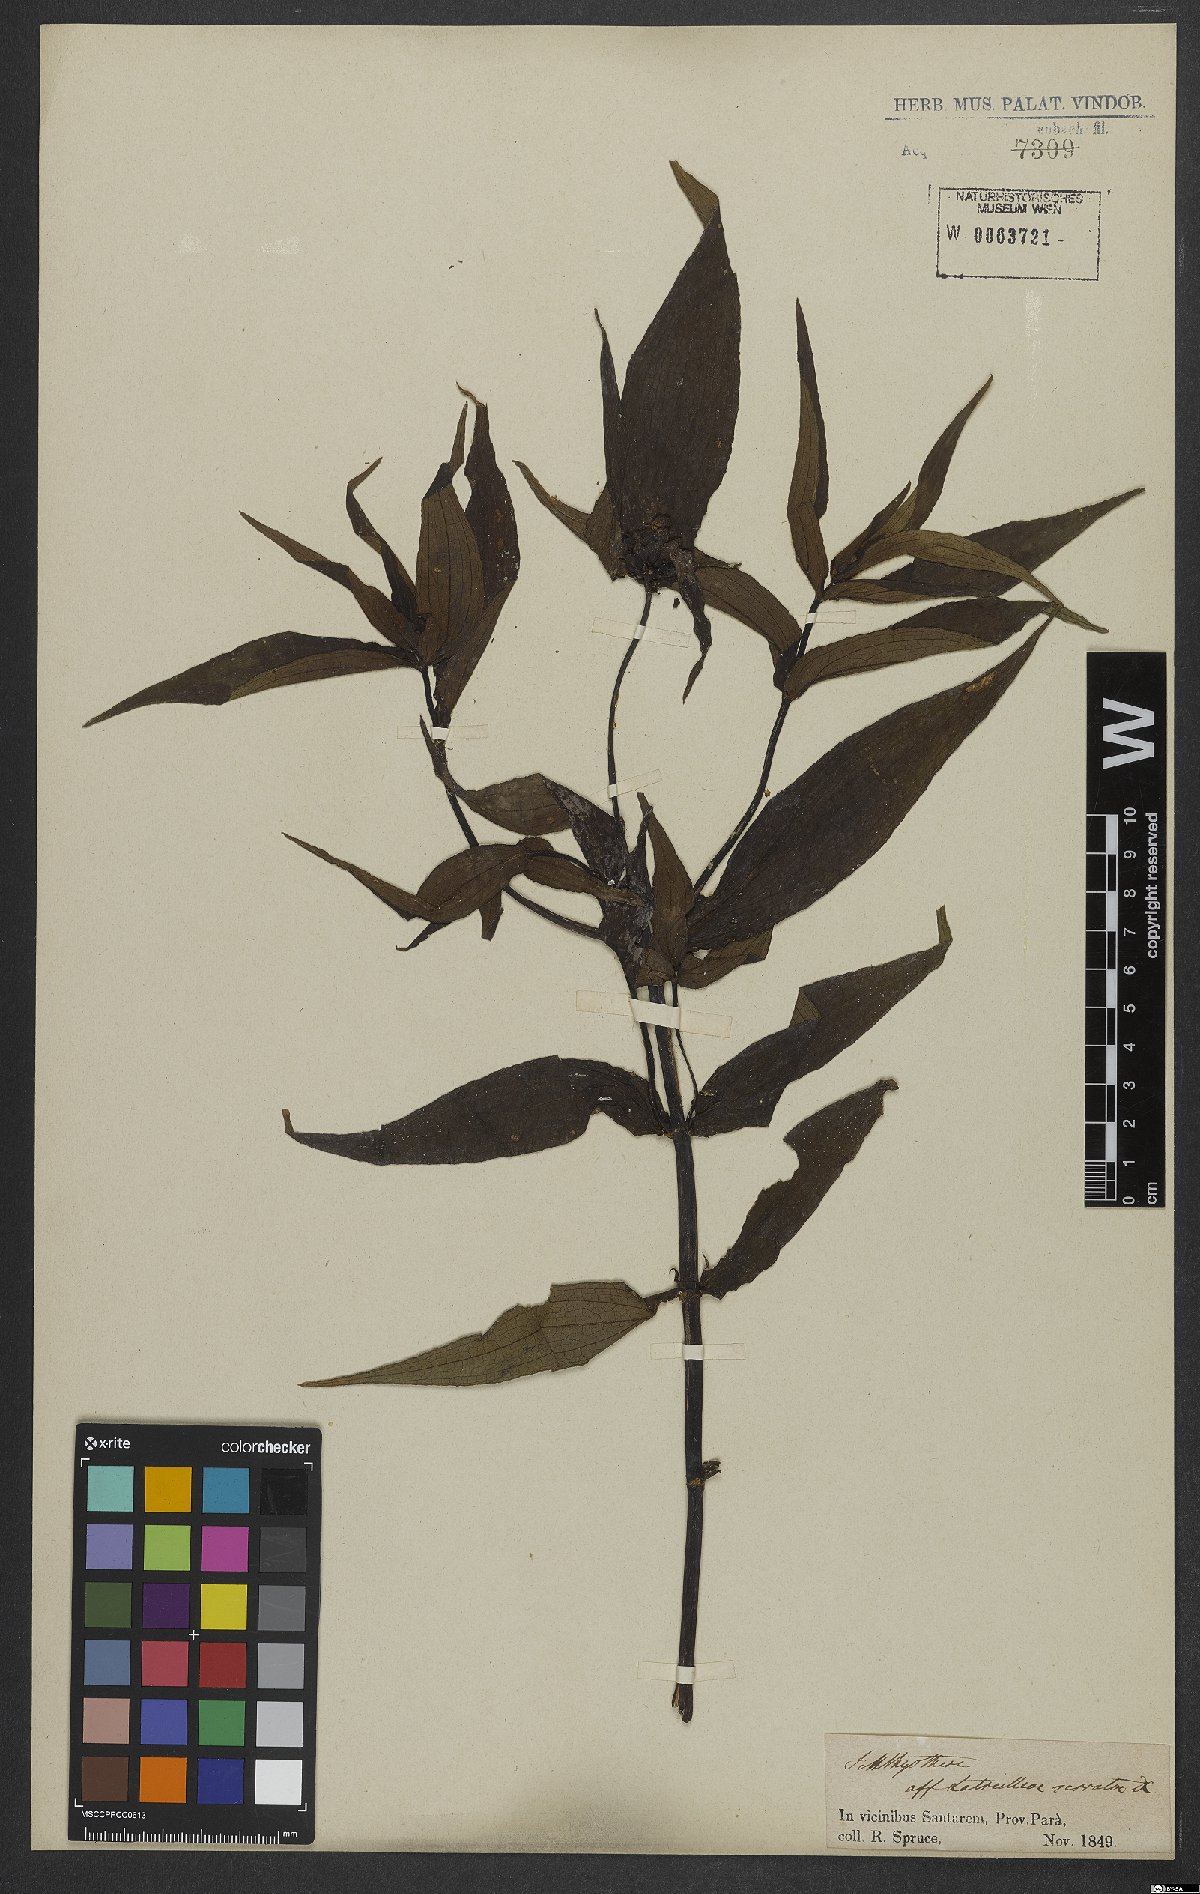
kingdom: Plantae
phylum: Tracheophyta
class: Magnoliopsida
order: Asterales
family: Asteraceae
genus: Ichthyothere
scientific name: Ichthyothere cunabi
